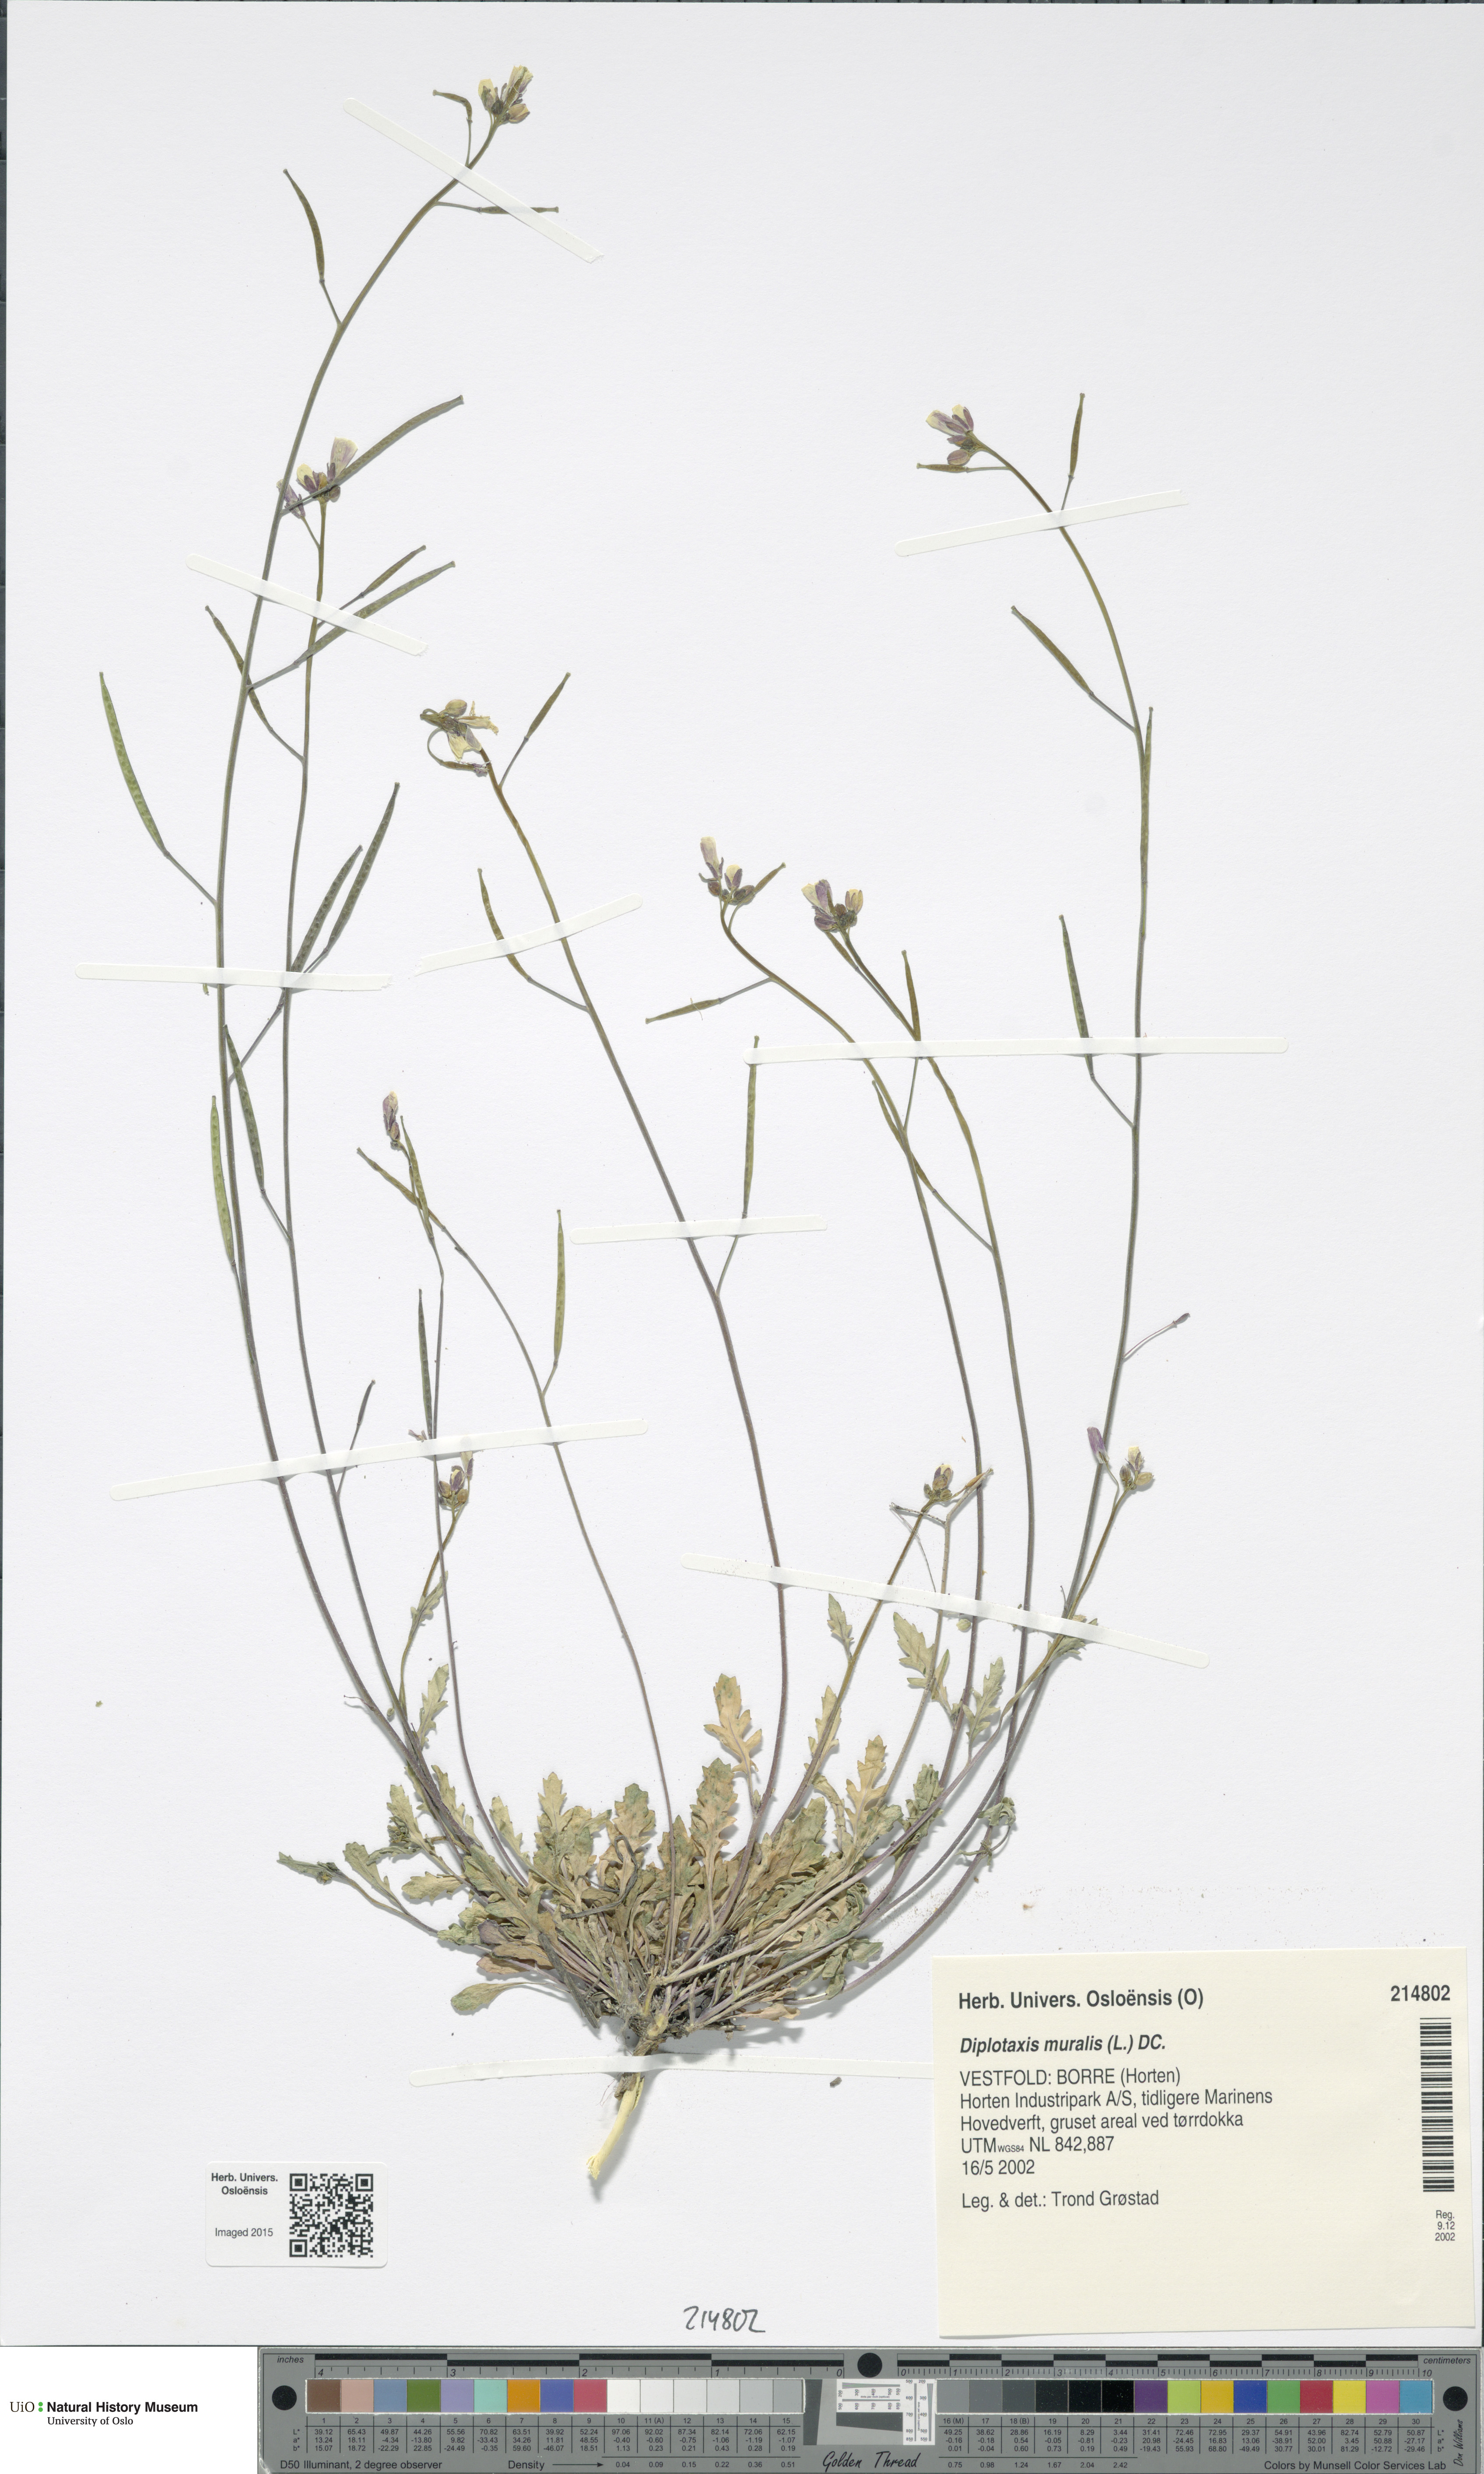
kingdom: Plantae
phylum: Tracheophyta
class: Magnoliopsida
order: Brassicales
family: Brassicaceae
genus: Diplotaxis
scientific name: Diplotaxis muralis
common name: Annual wall-rocket
